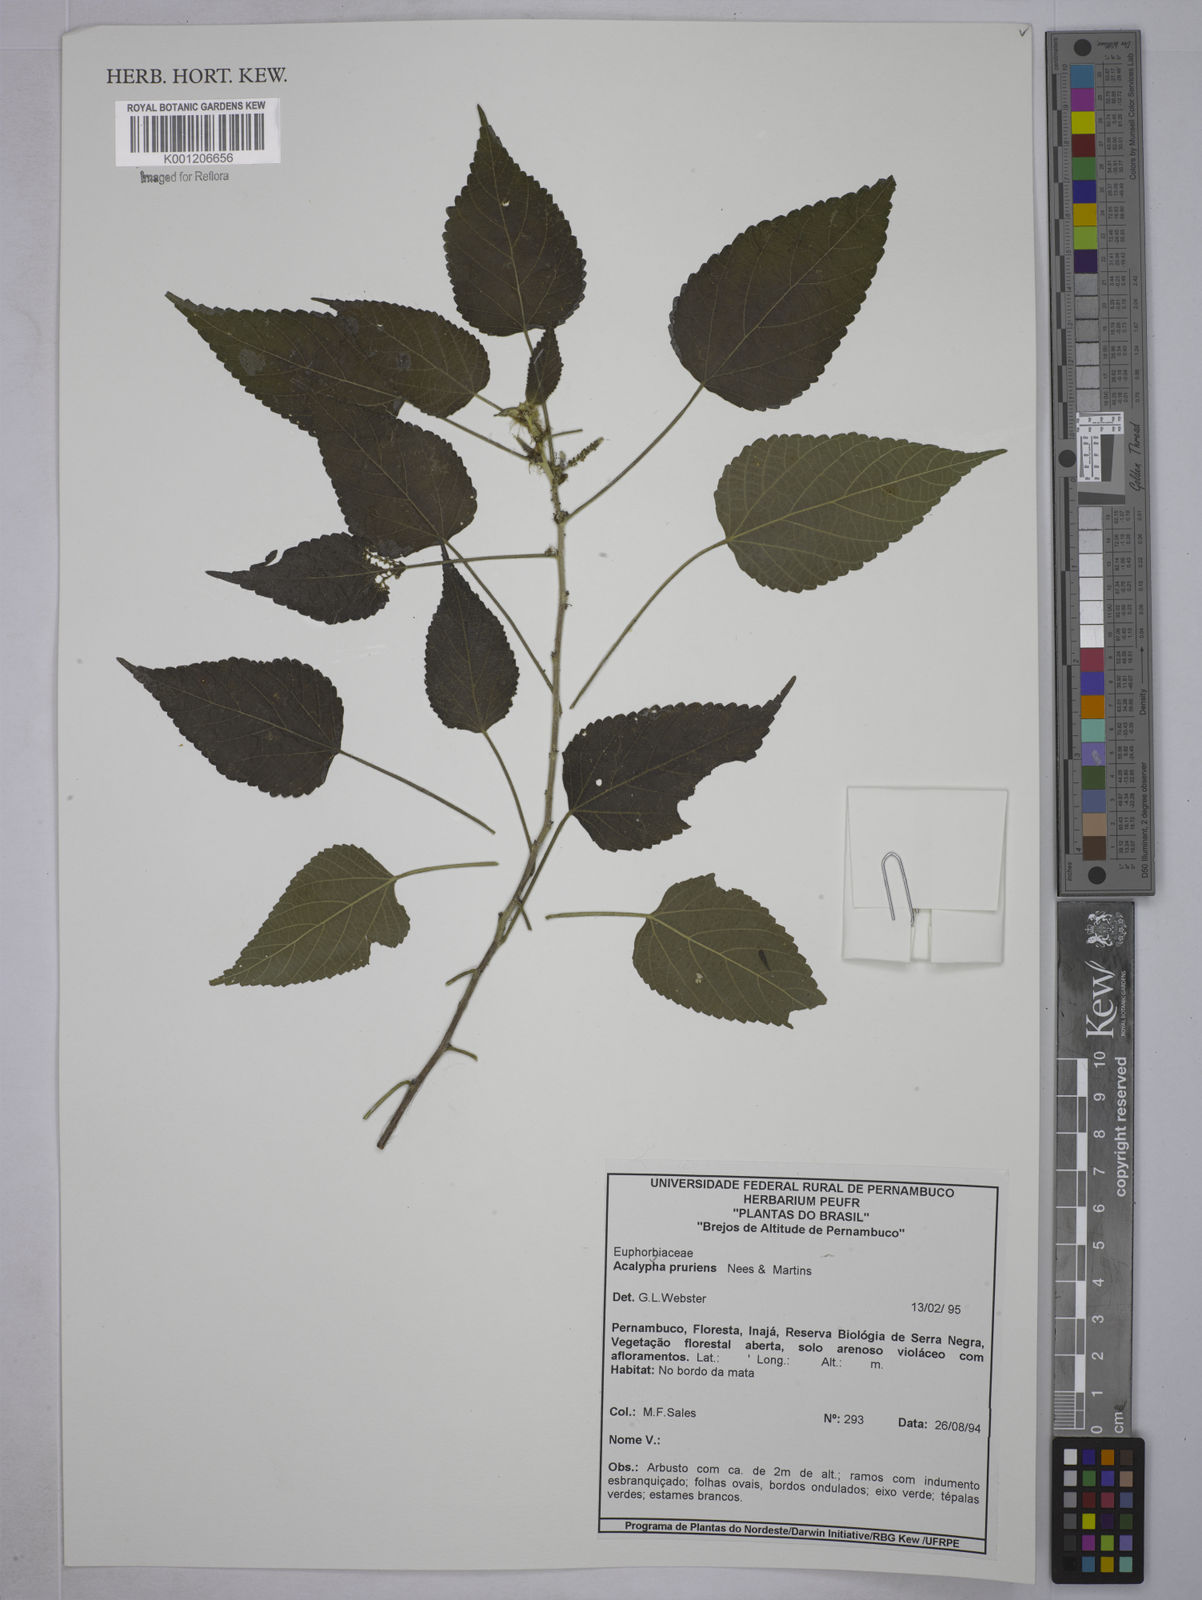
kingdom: Plantae
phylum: Tracheophyta
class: Magnoliopsida
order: Malpighiales
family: Euphorbiaceae
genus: Acalypha
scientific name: Acalypha pruriens
